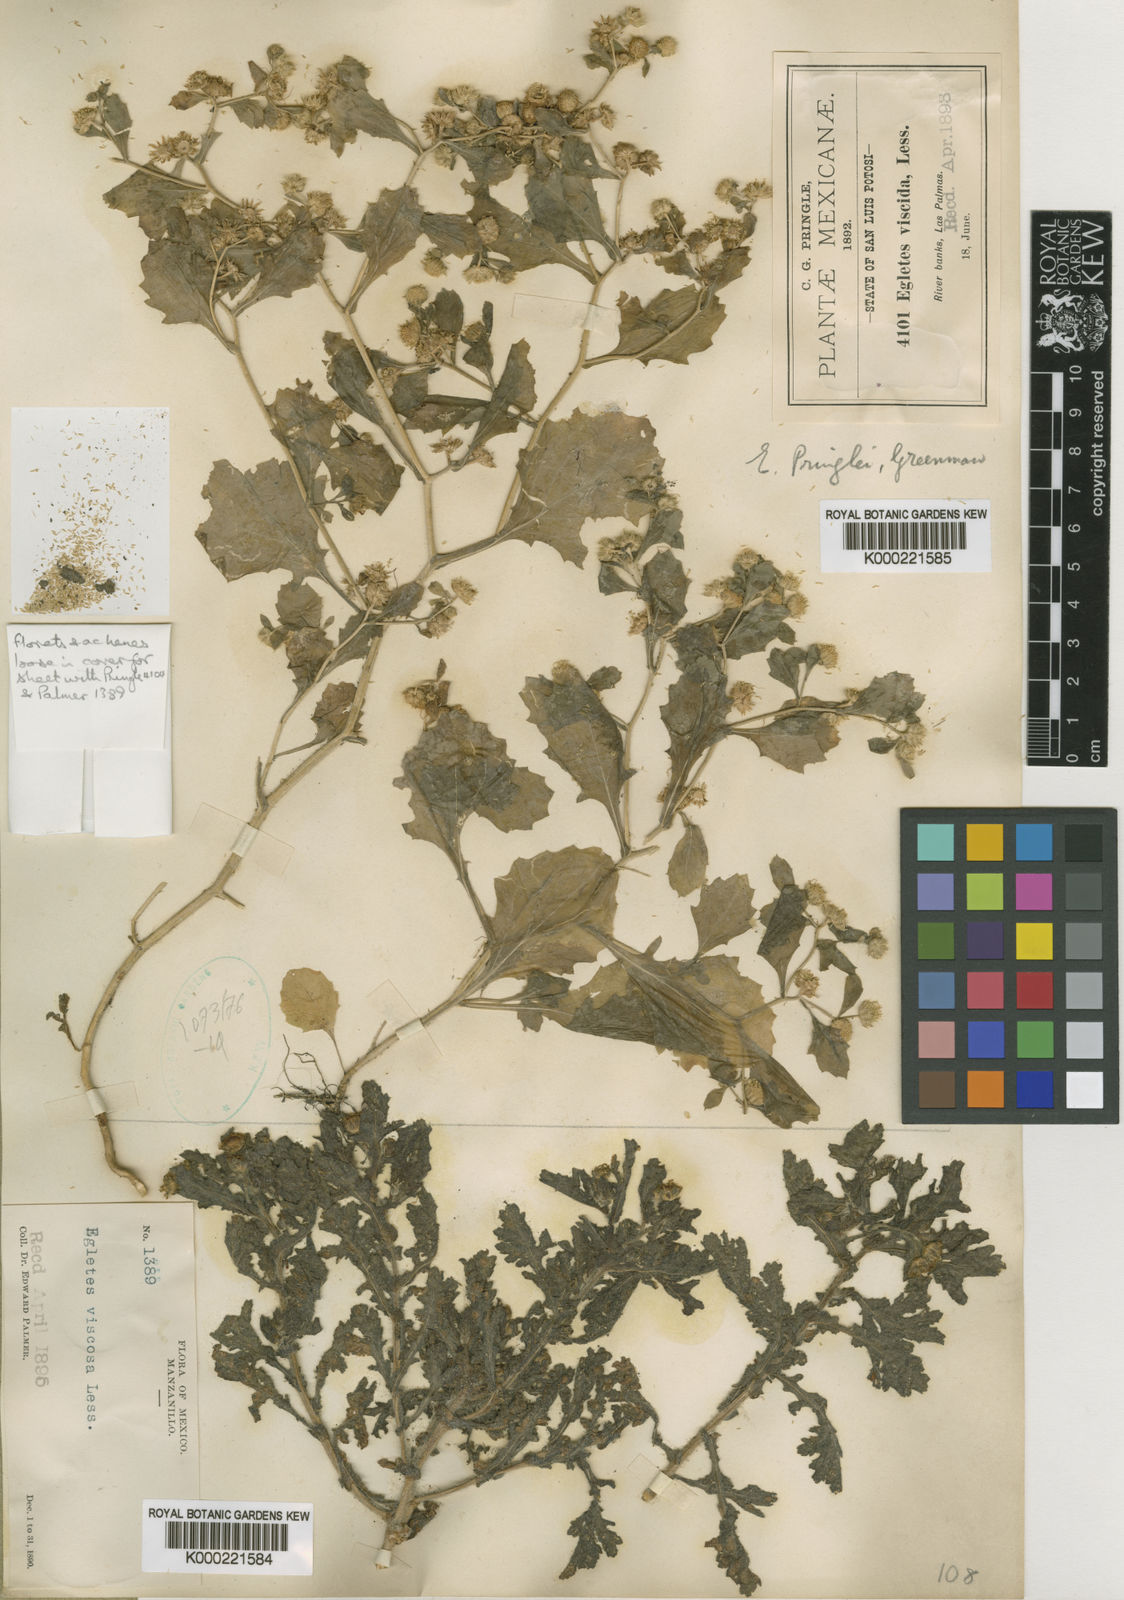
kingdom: Plantae
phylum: Tracheophyta
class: Magnoliopsida
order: Asterales
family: Asteraceae
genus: Egletes
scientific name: Egletes
